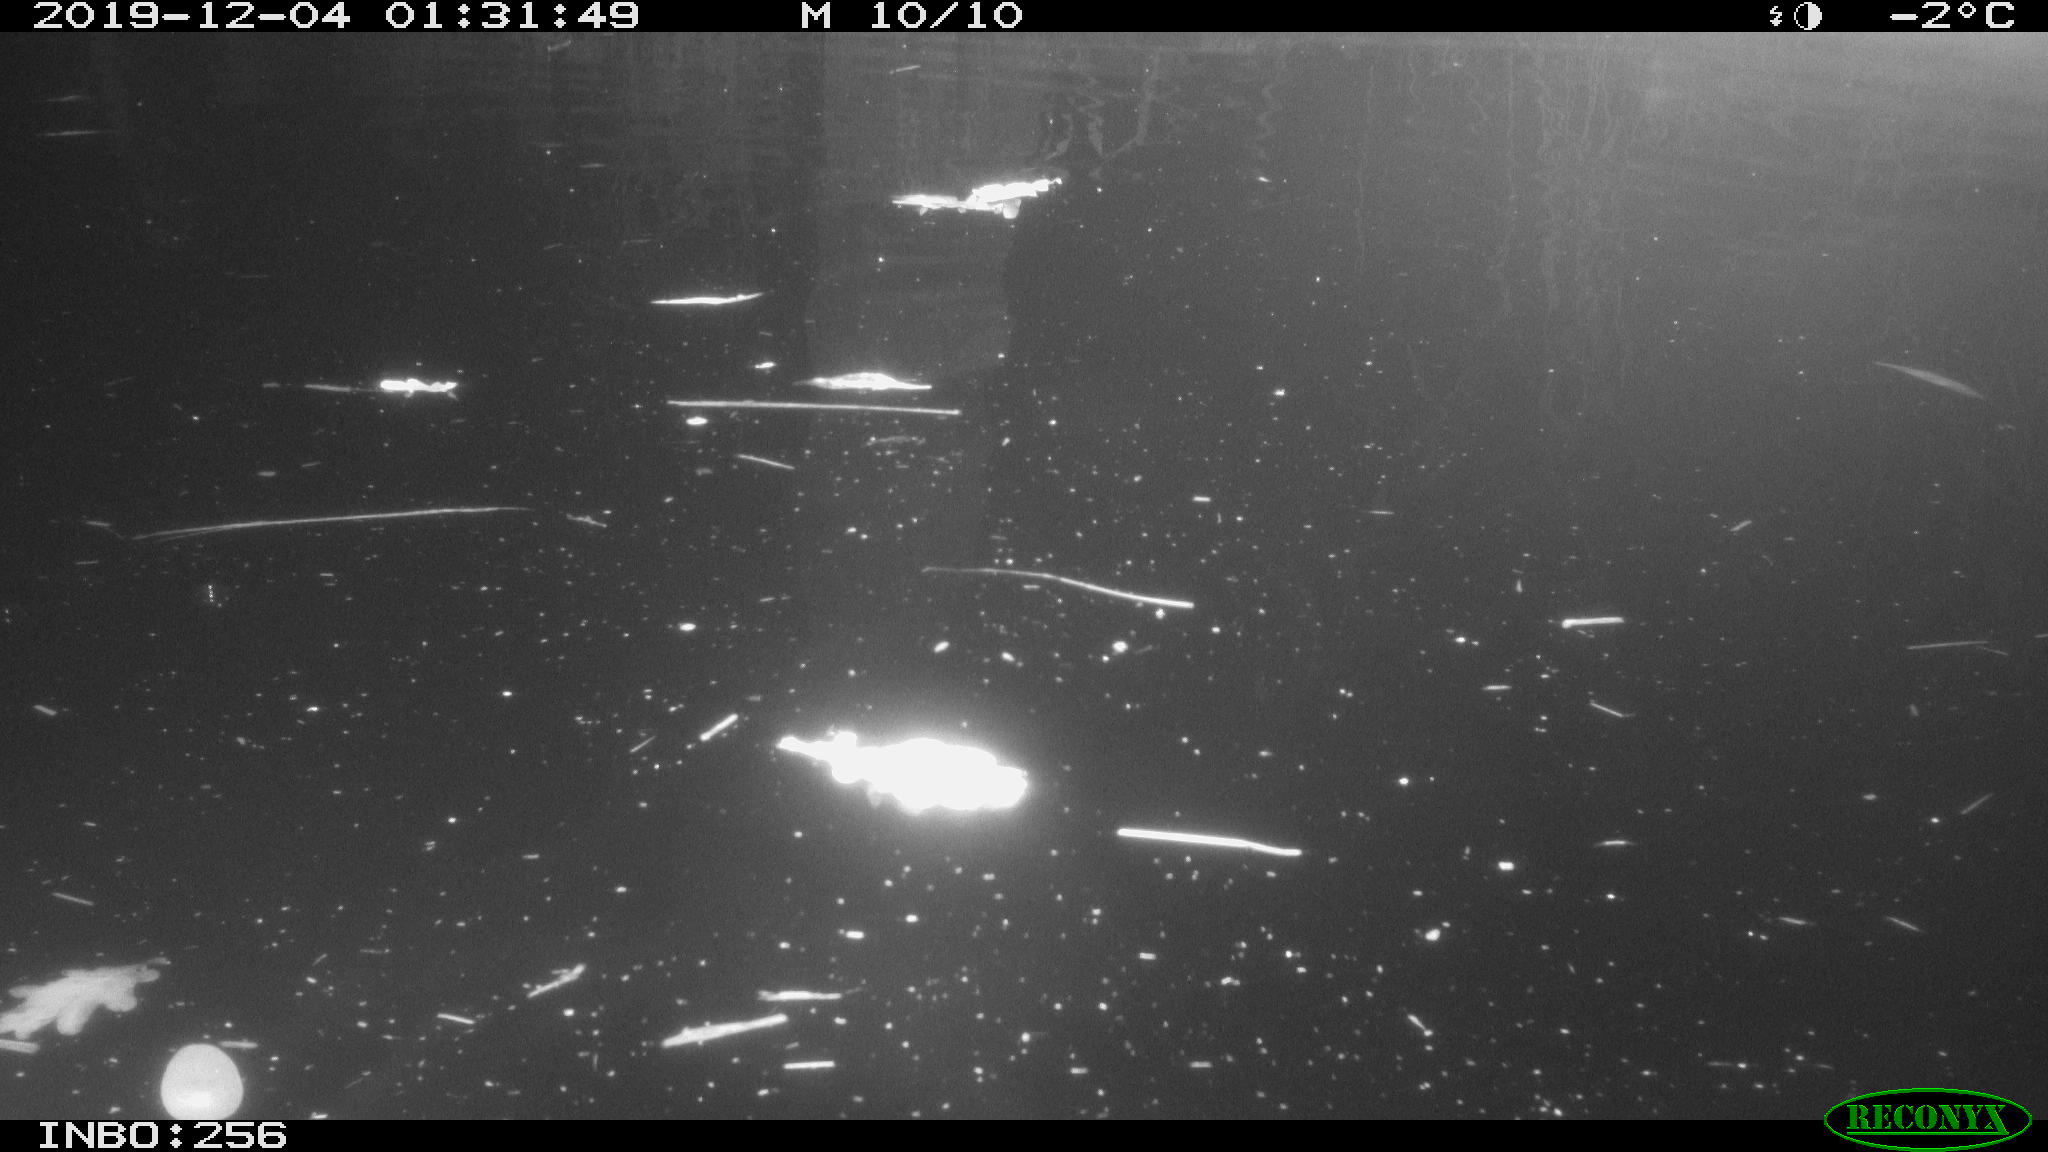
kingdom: Animalia
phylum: Chordata
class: Mammalia
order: Rodentia
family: Cricetidae
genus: Ondatra
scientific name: Ondatra zibethicus
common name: Muskrat
